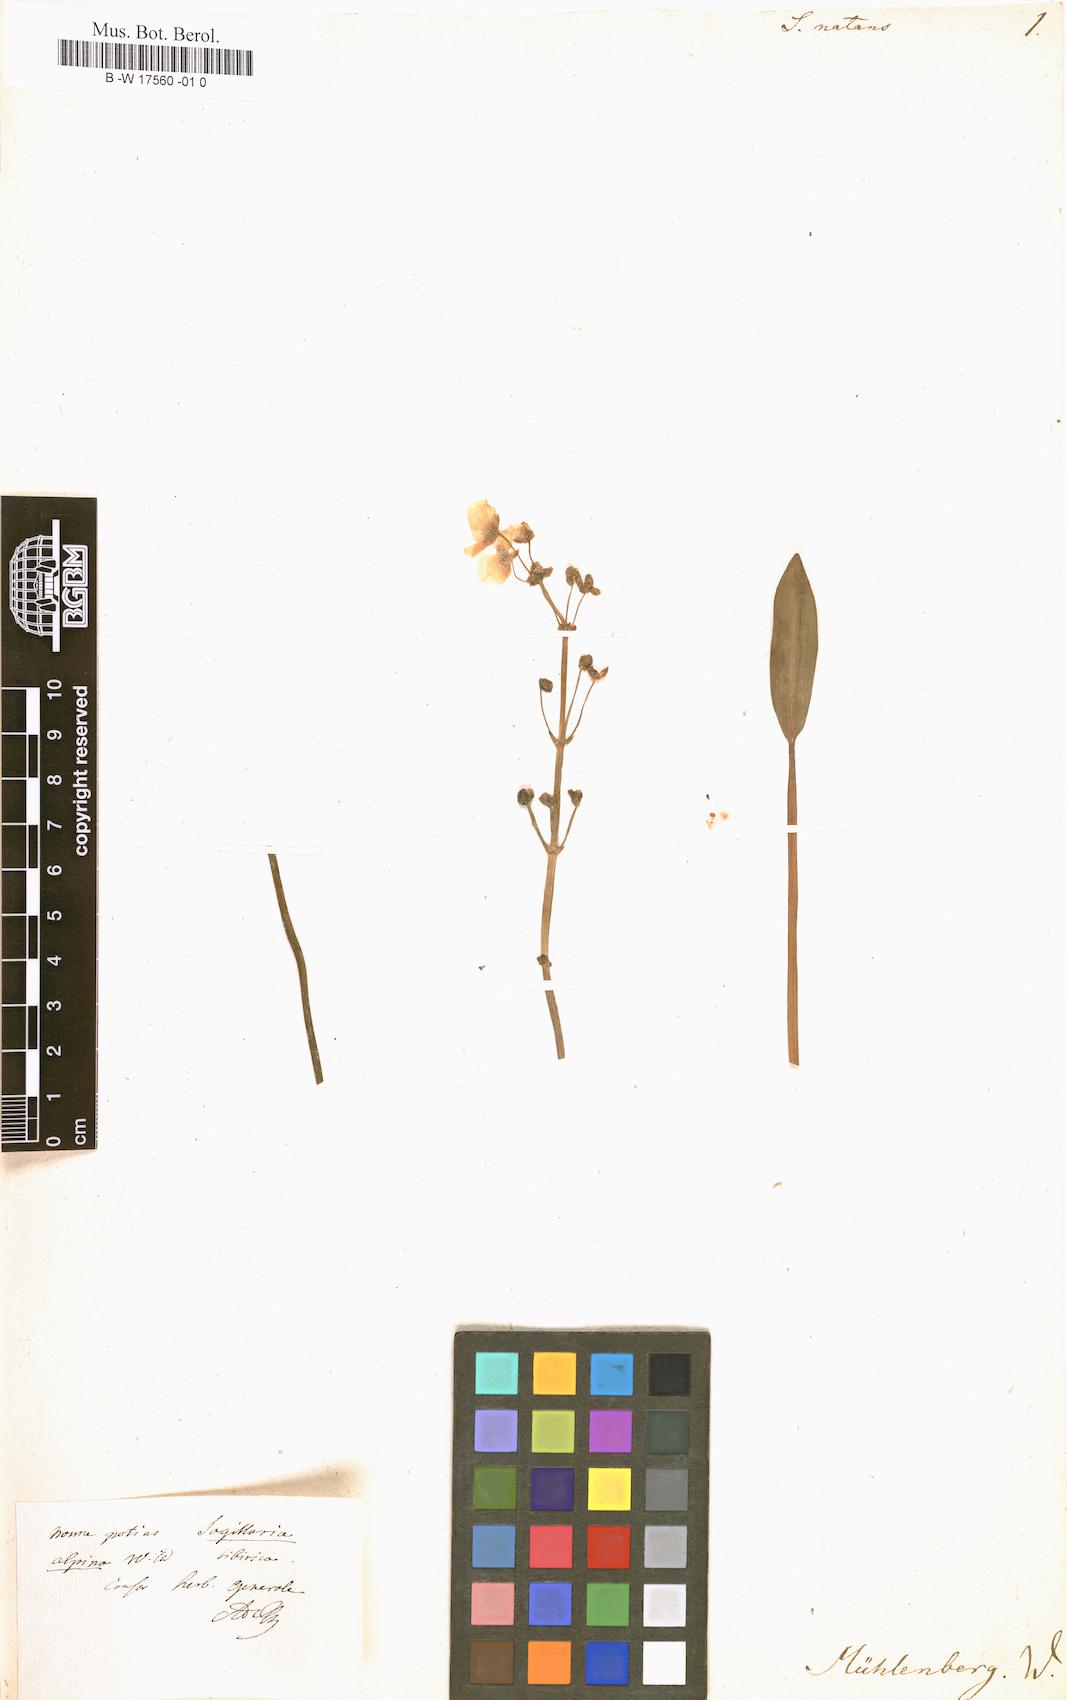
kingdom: Plantae
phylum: Tracheophyta
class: Liliopsida
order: Alismatales
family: Alismataceae
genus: Sagittaria
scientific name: Sagittaria natans
